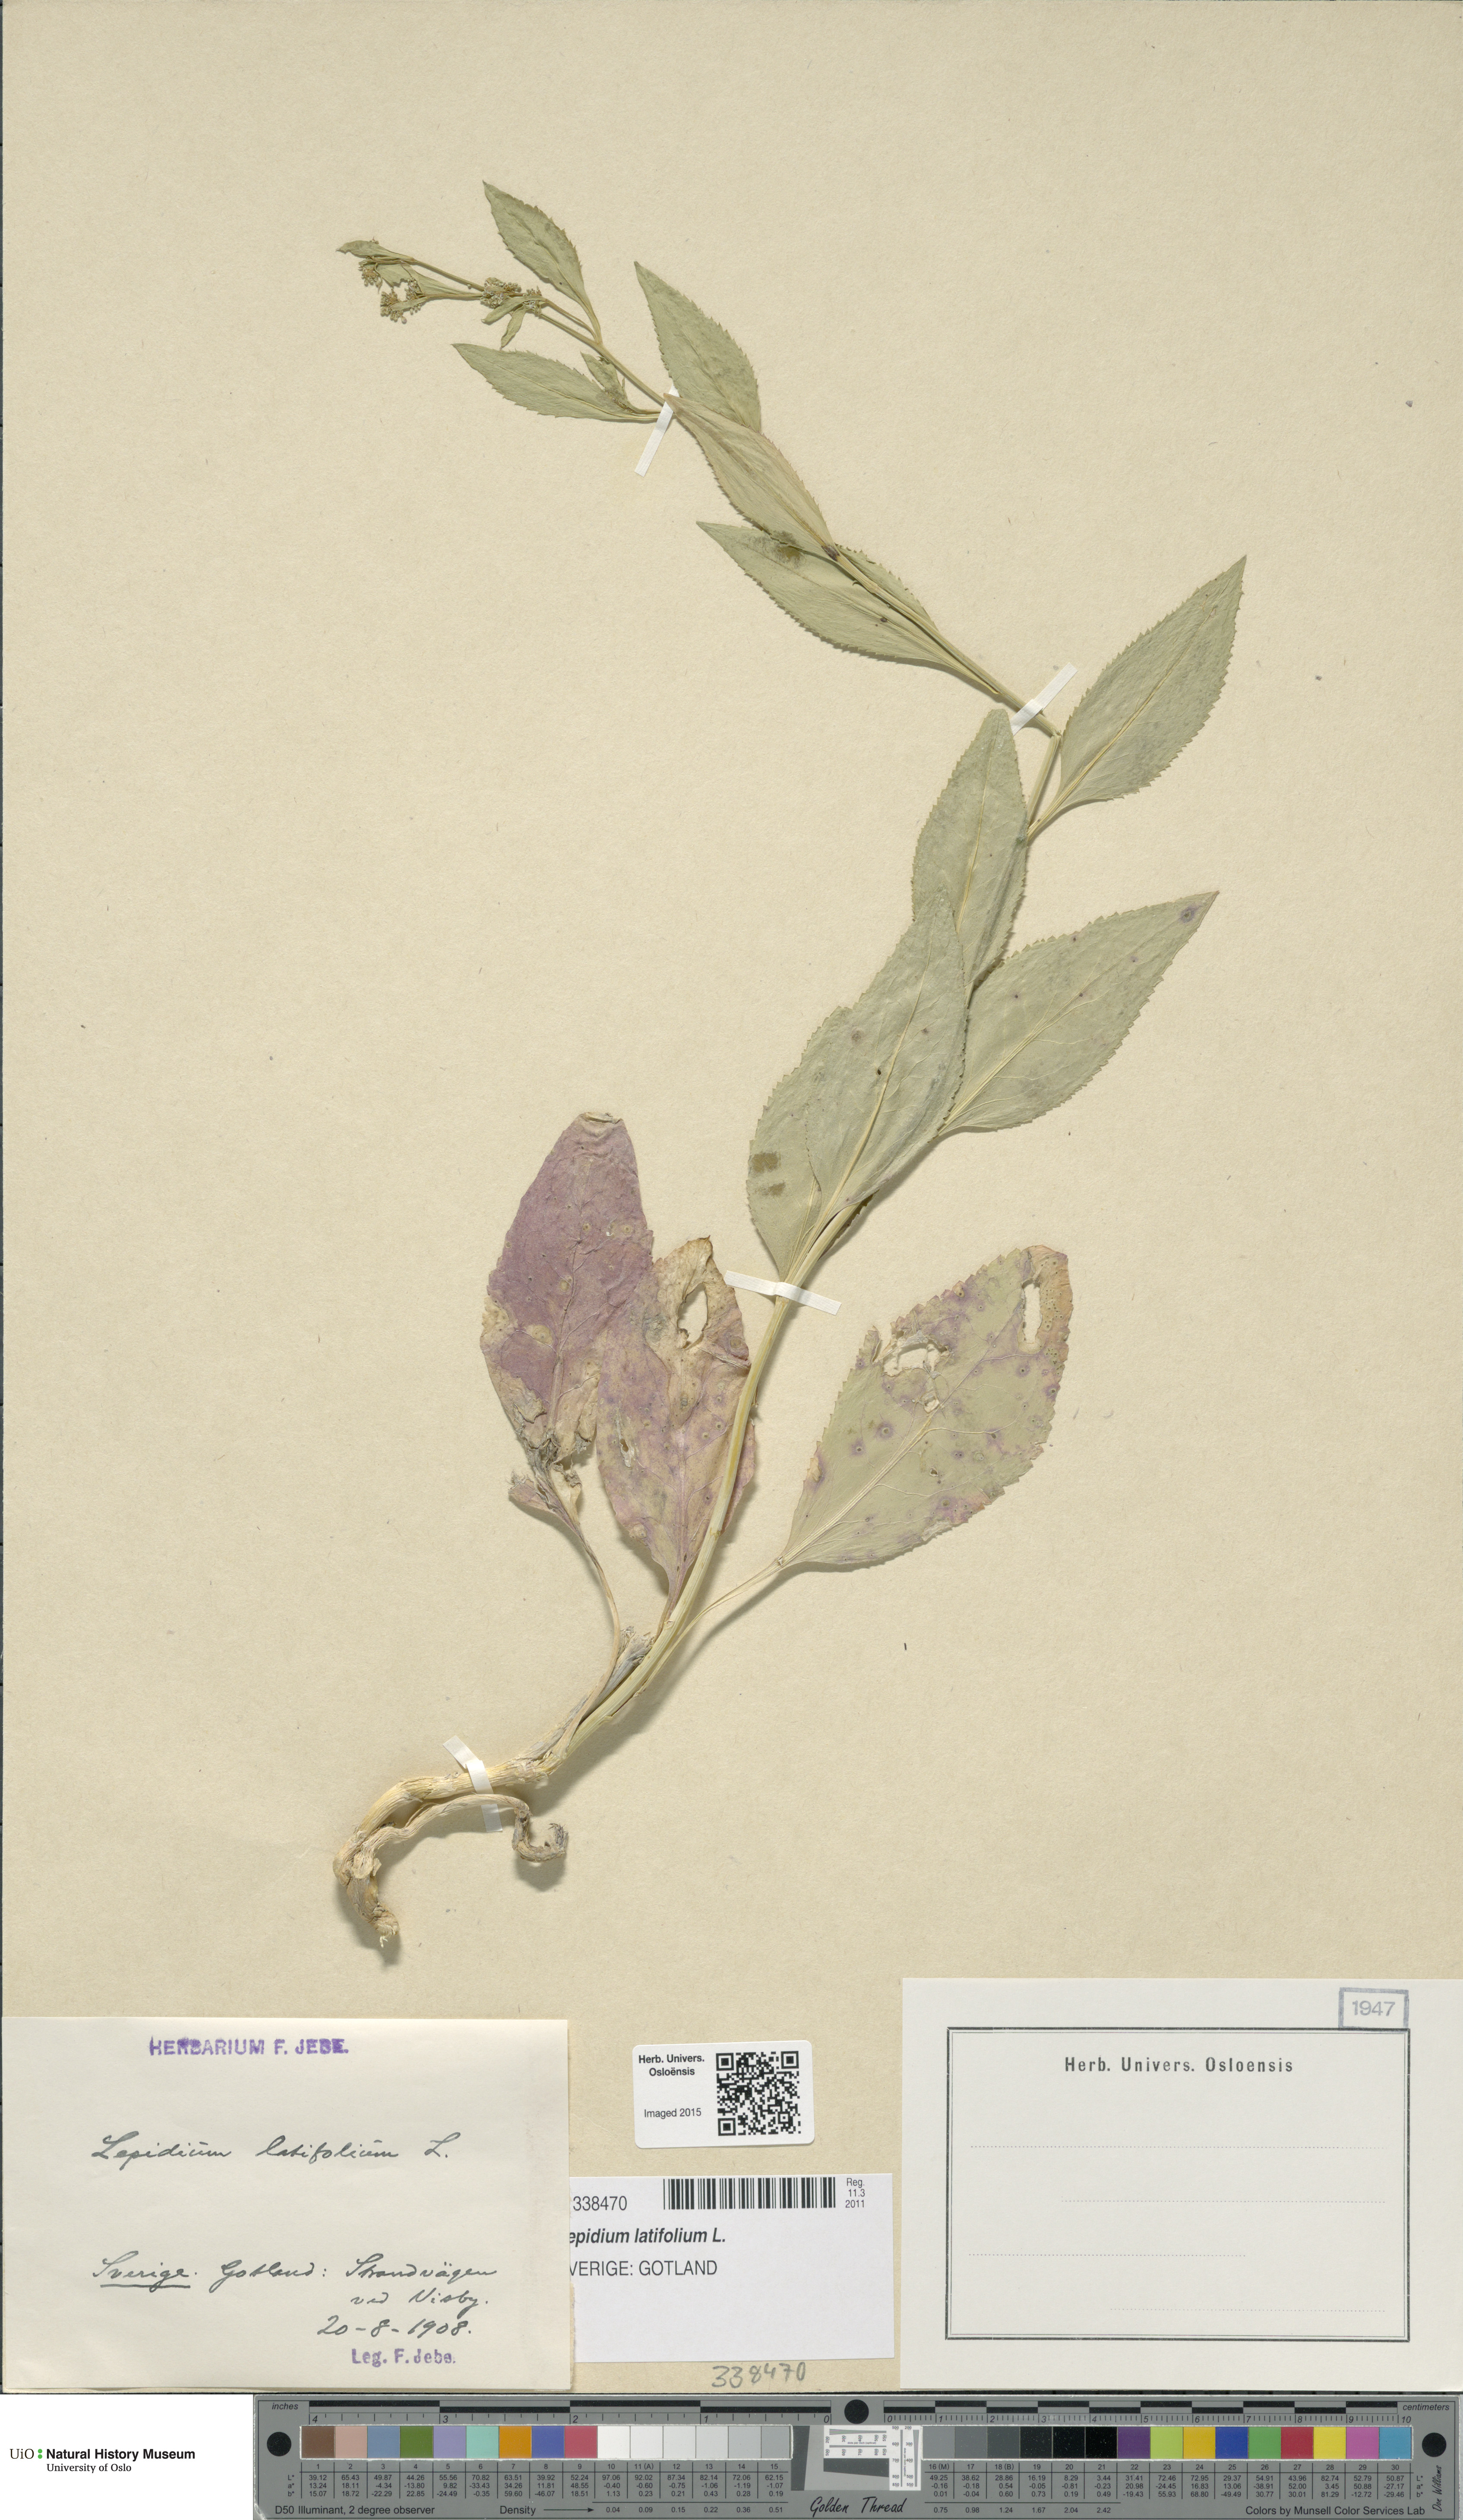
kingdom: Plantae
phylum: Tracheophyta
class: Magnoliopsida
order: Brassicales
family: Brassicaceae
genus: Lepidium
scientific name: Lepidium latifolium
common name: Dittander
